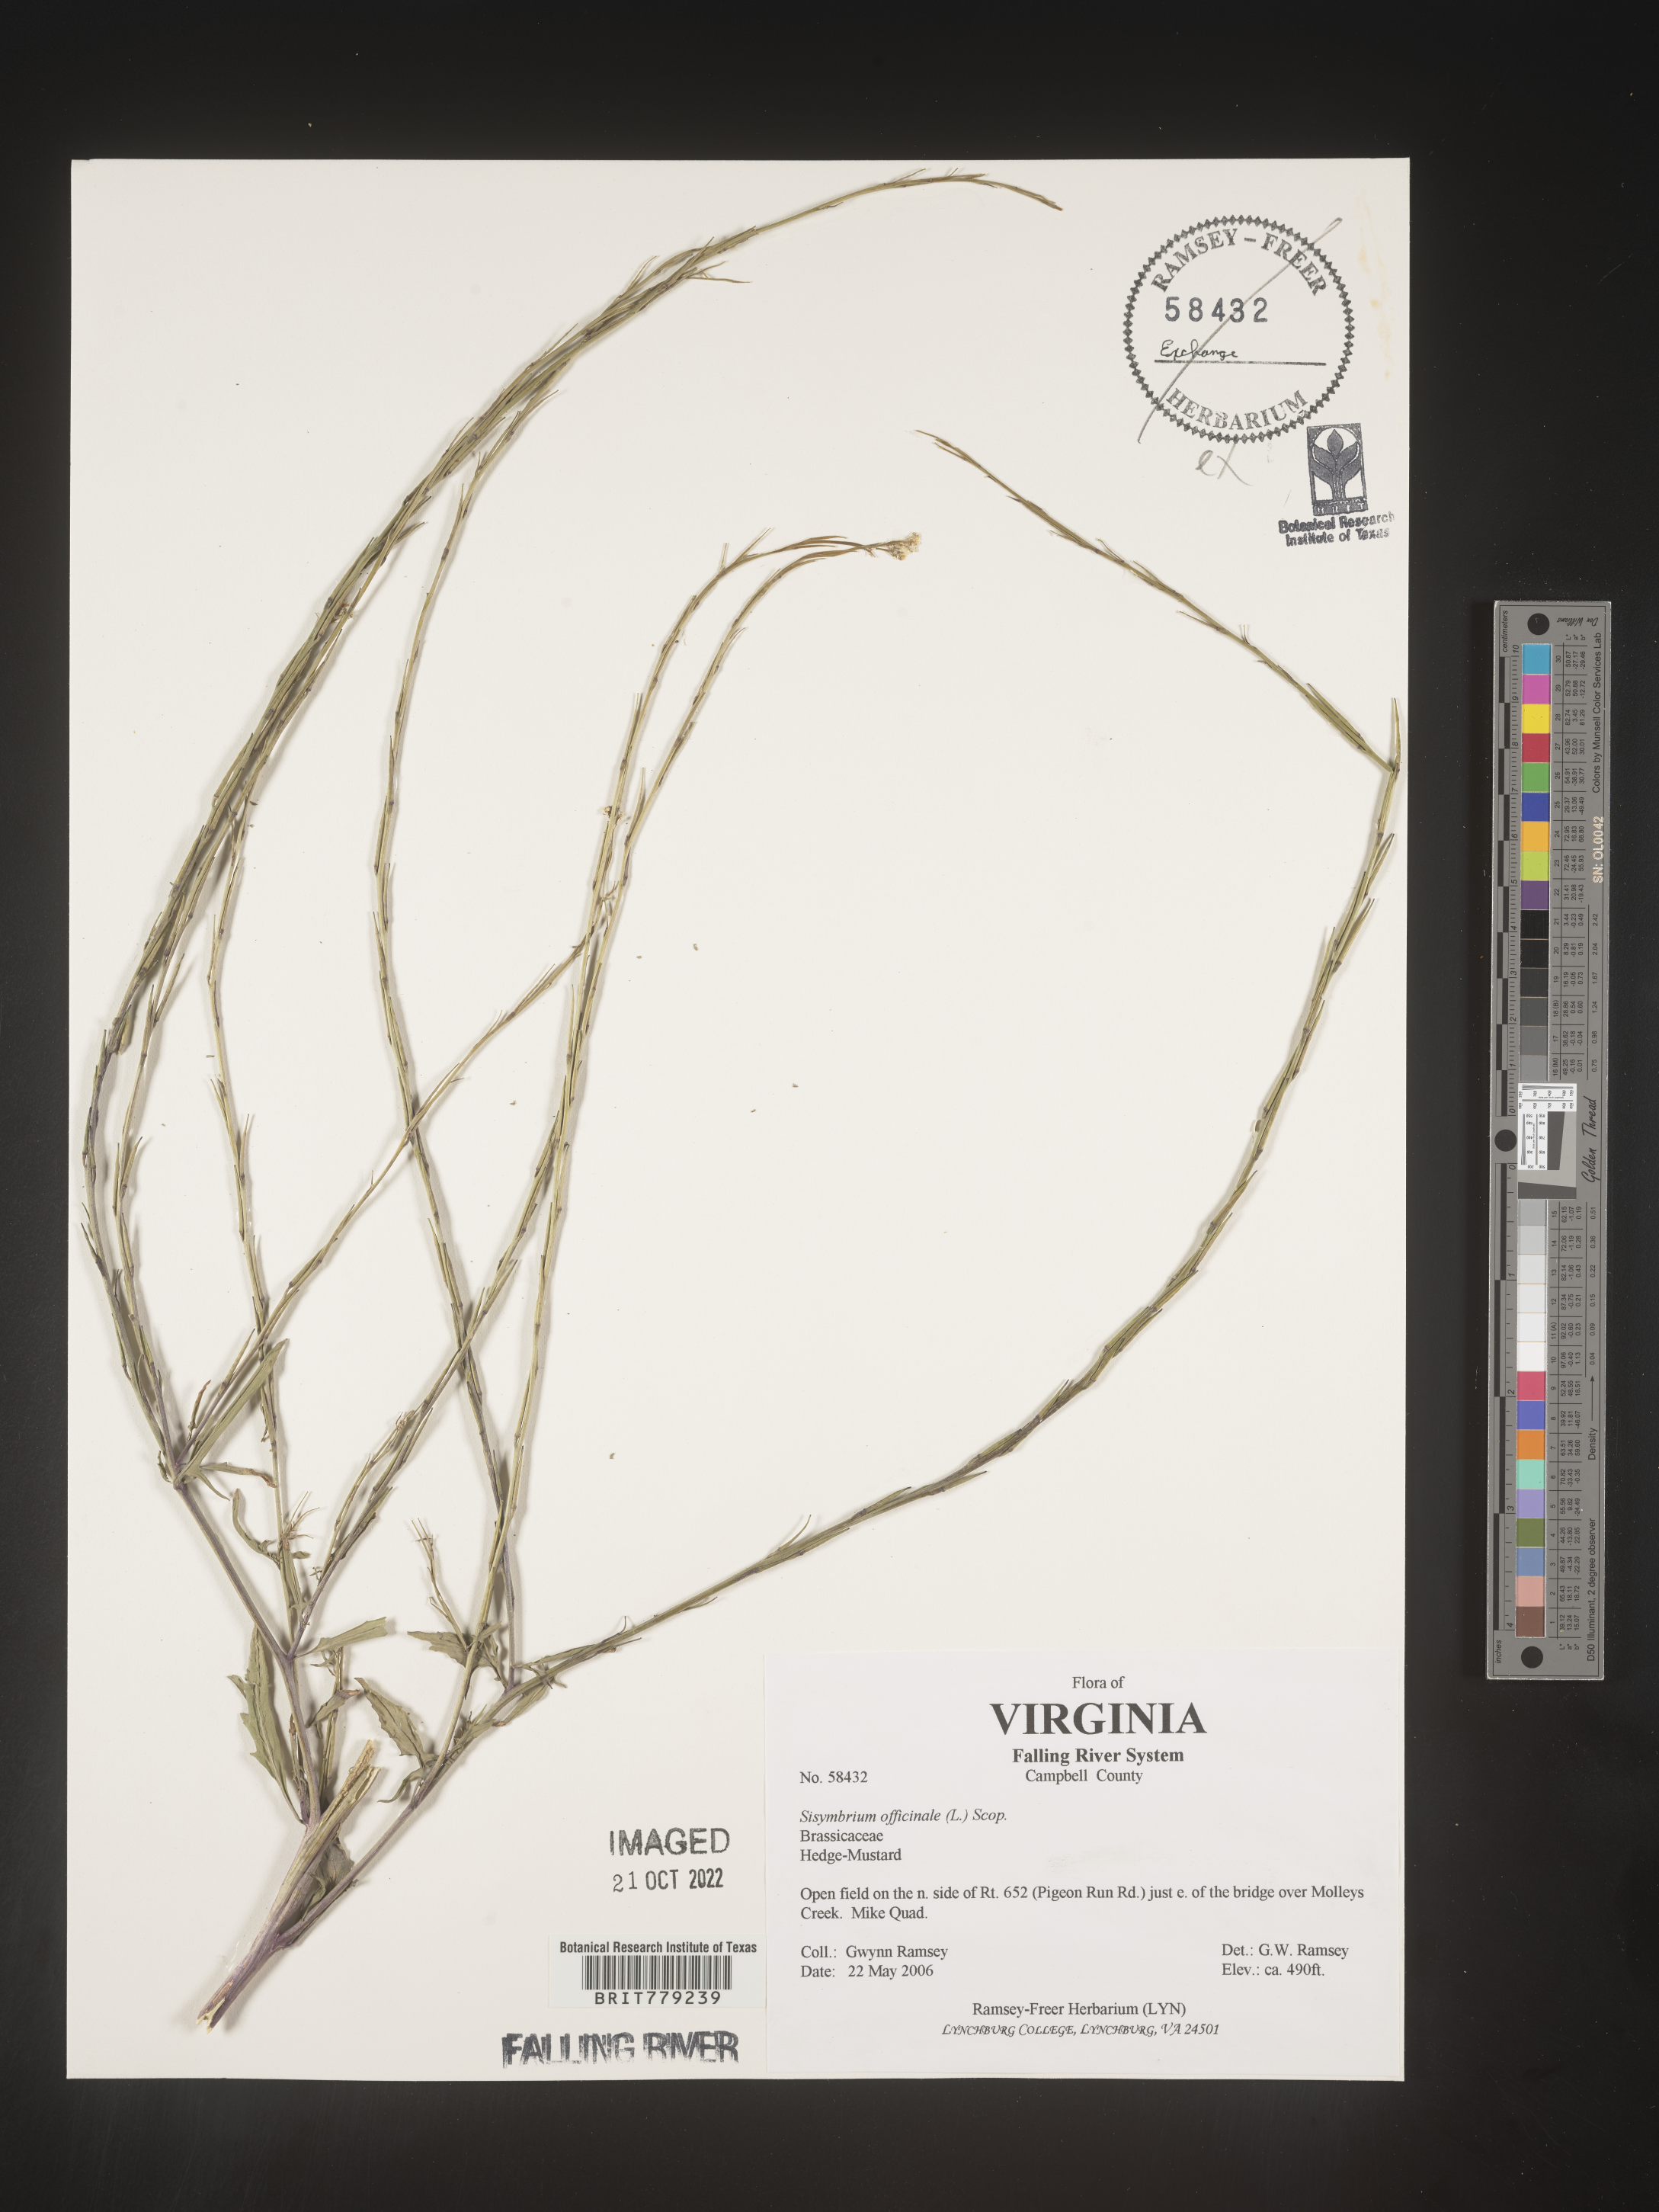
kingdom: Plantae
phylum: Tracheophyta
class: Magnoliopsida
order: Brassicales
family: Brassicaceae
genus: Sisymbrium
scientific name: Sisymbrium officinale
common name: Hedge mustard
